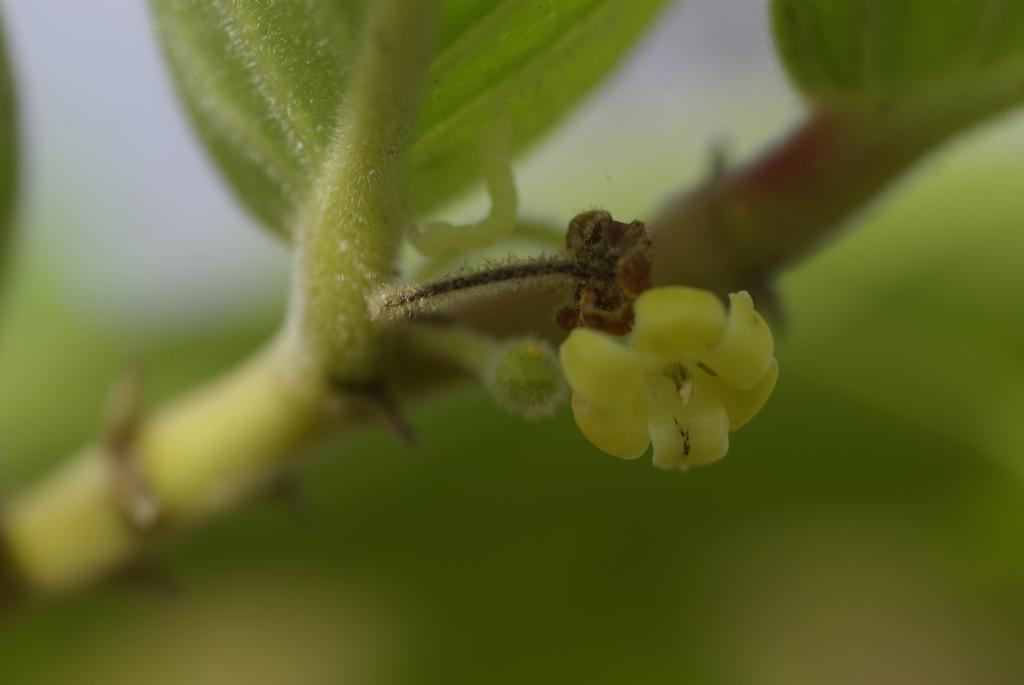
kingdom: Plantae
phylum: Tracheophyta
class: Magnoliopsida
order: Malpighiales
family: Phyllanthaceae
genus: Glochidion
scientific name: Glochidion philippicum
